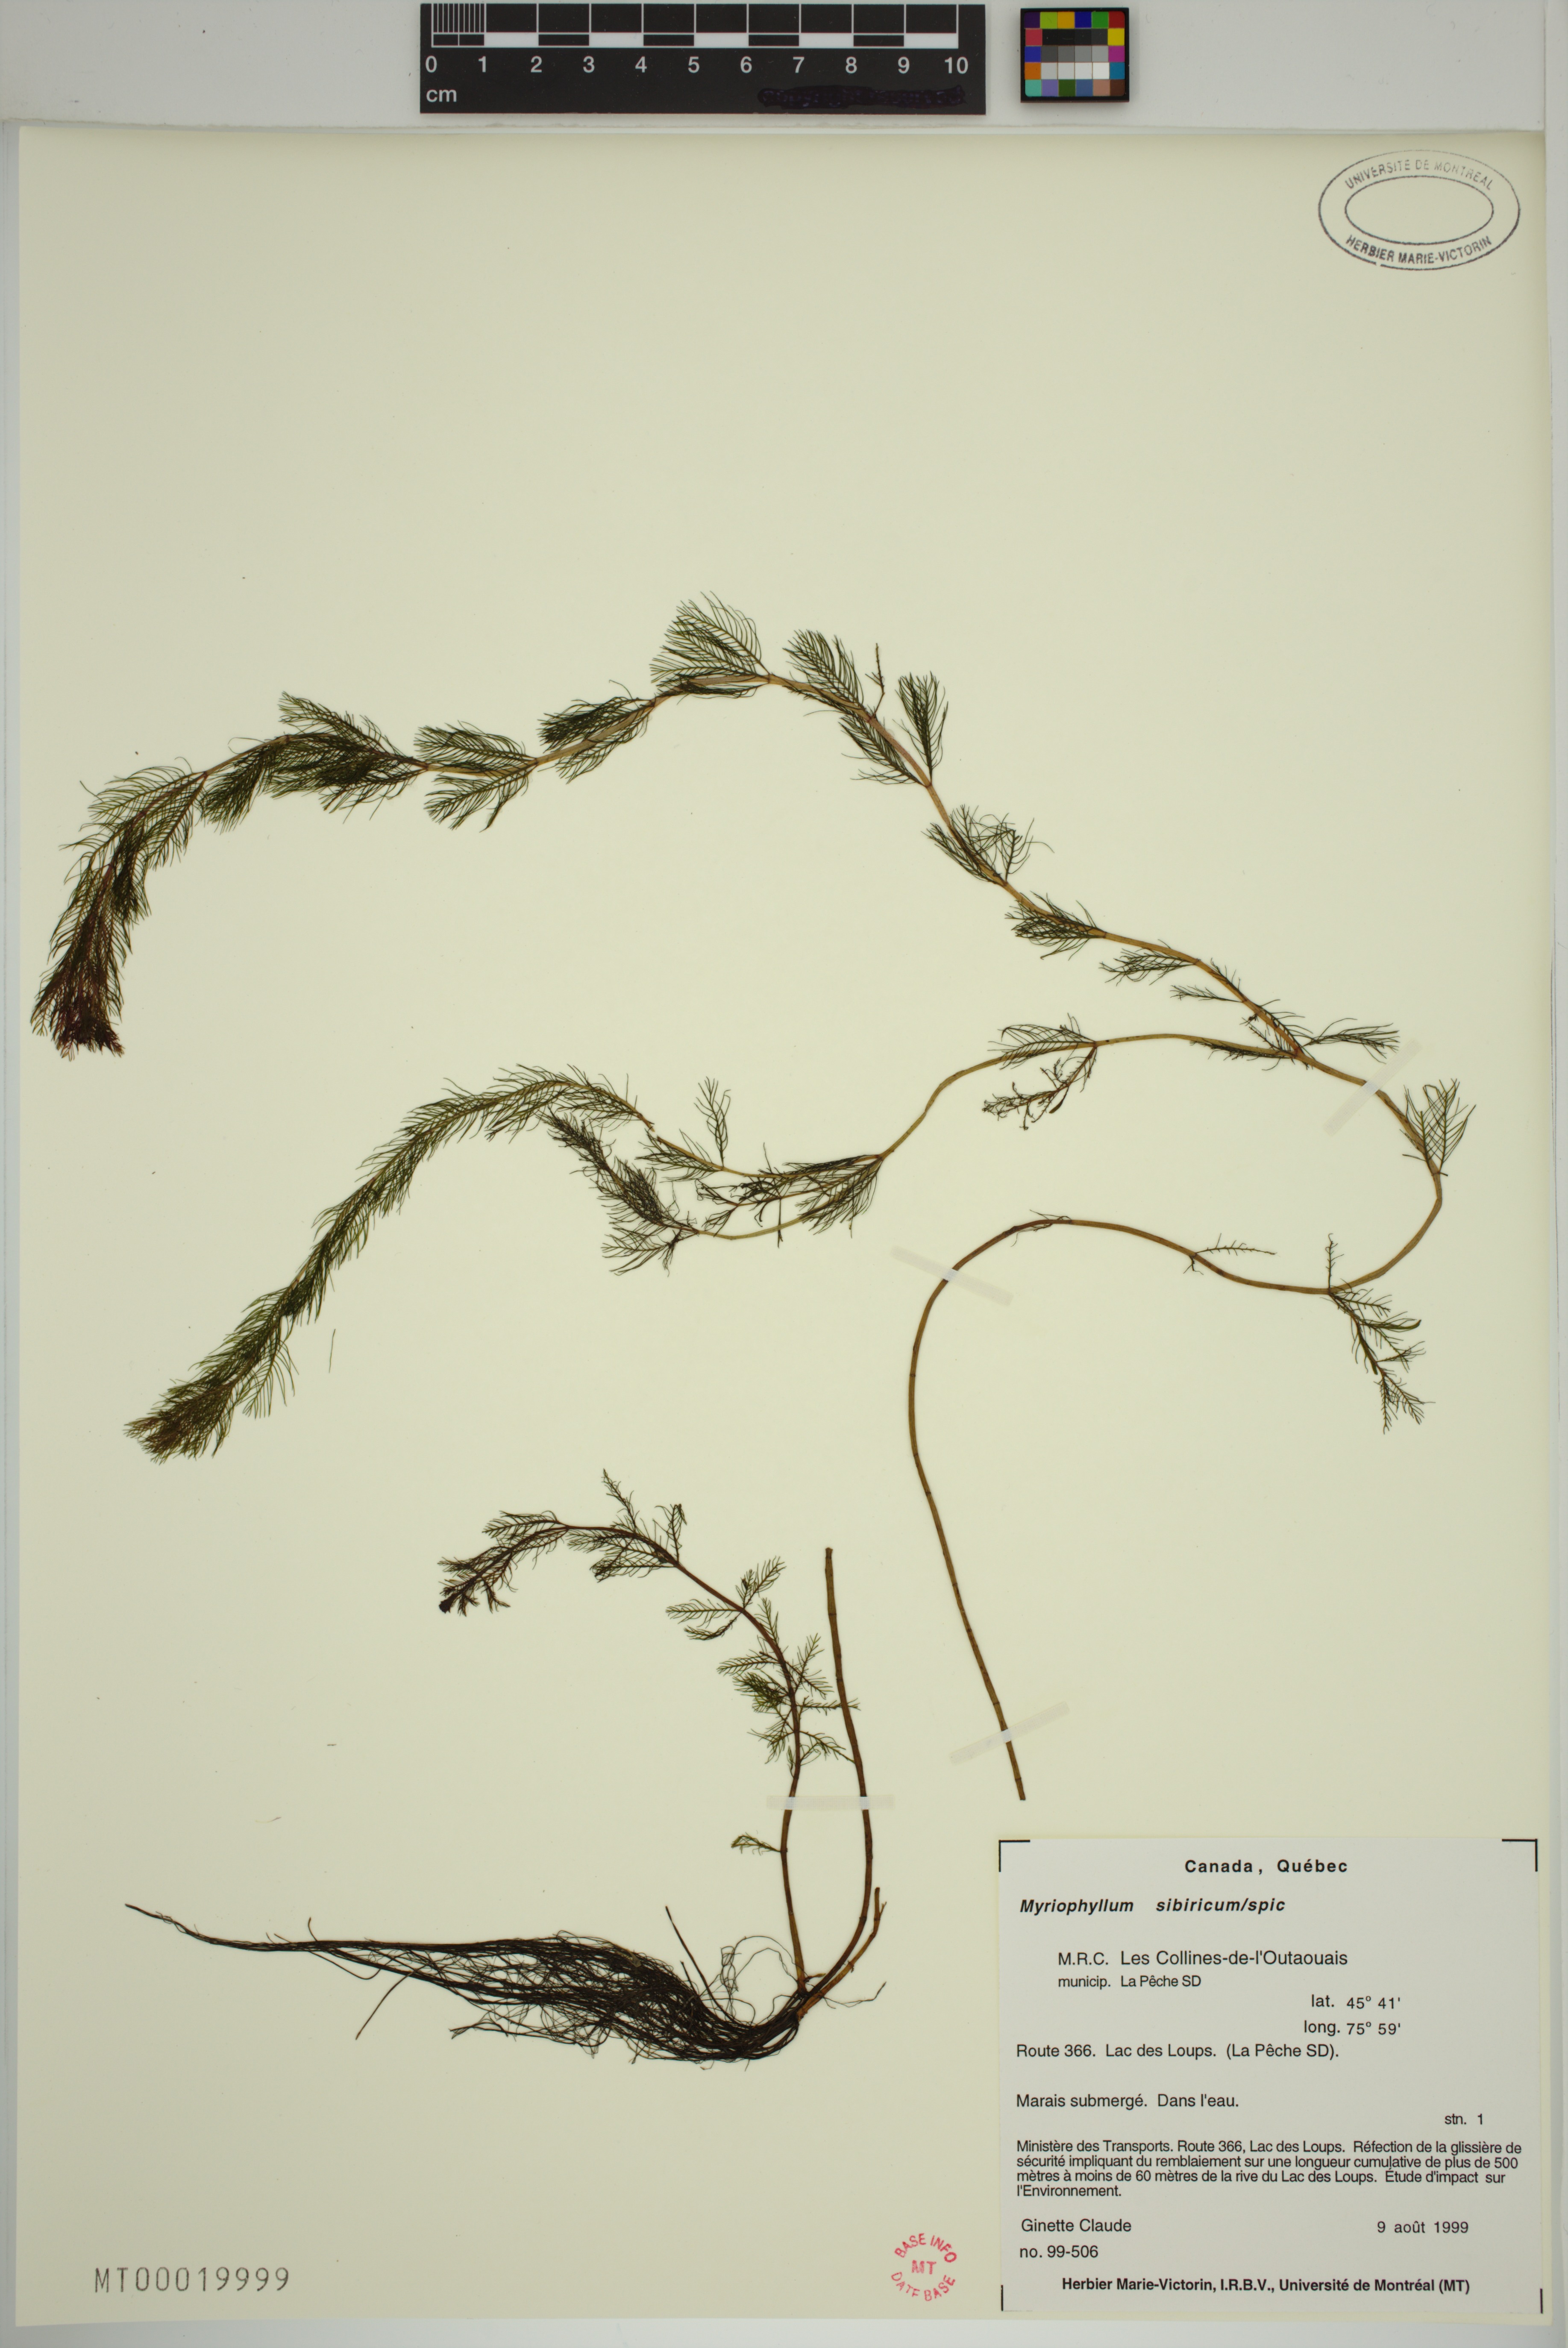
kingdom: Plantae
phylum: Tracheophyta
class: Magnoliopsida
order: Saxifragales
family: Haloragaceae
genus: Myriophyllum
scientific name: Myriophyllum sibiricum
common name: Siberian water-milfoil
